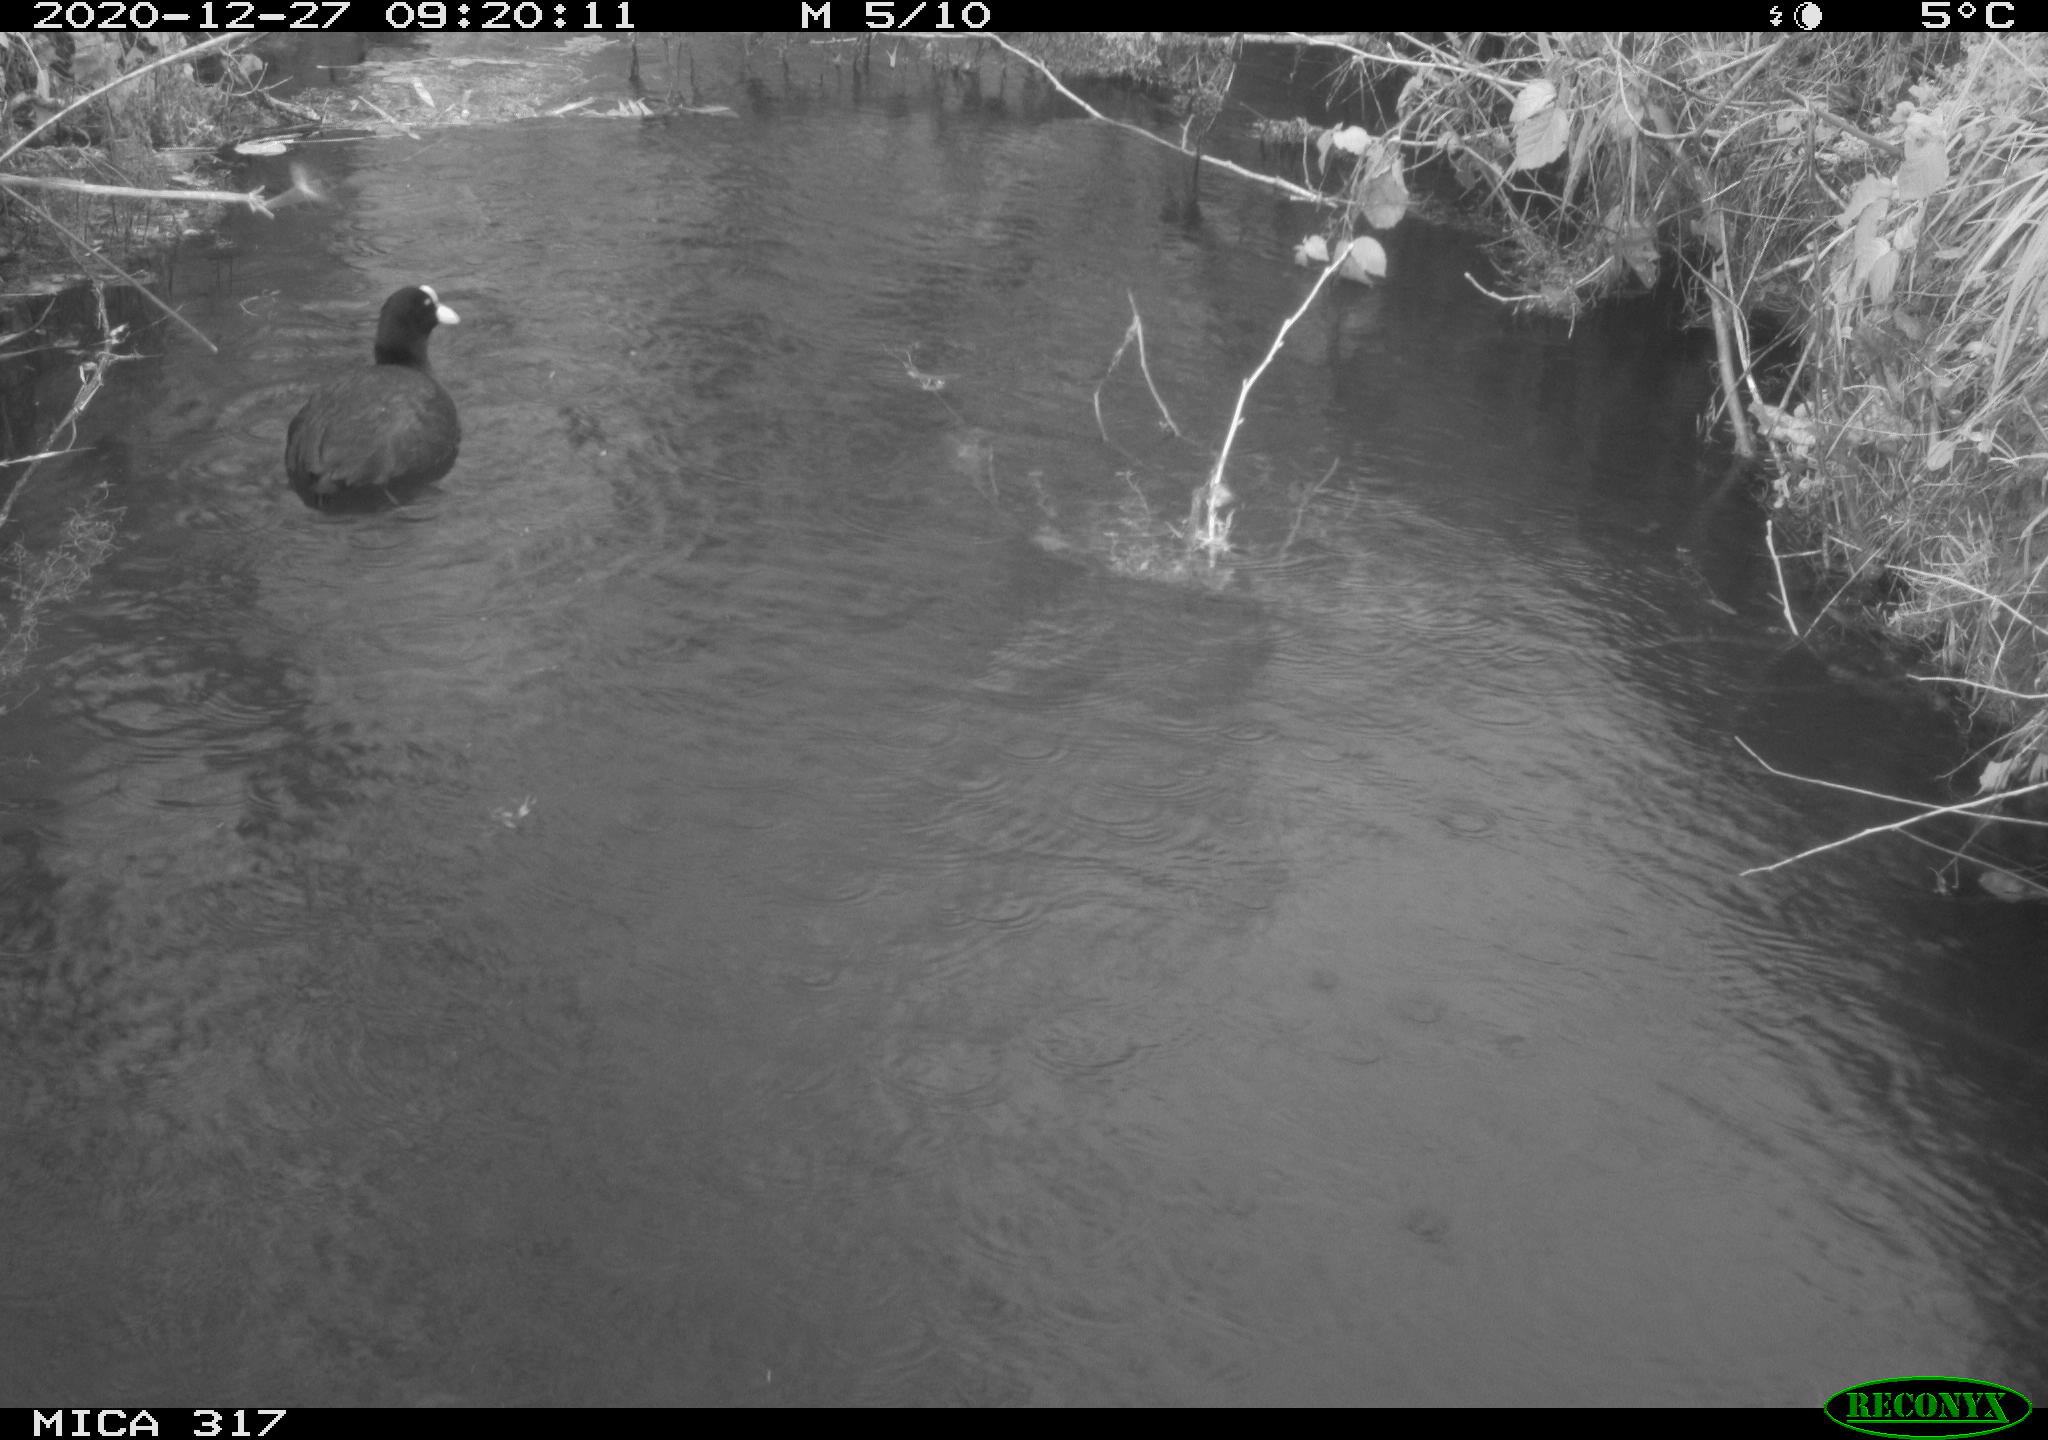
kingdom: Animalia
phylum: Chordata
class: Aves
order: Gruiformes
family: Rallidae
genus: Fulica
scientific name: Fulica atra
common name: Eurasian coot
